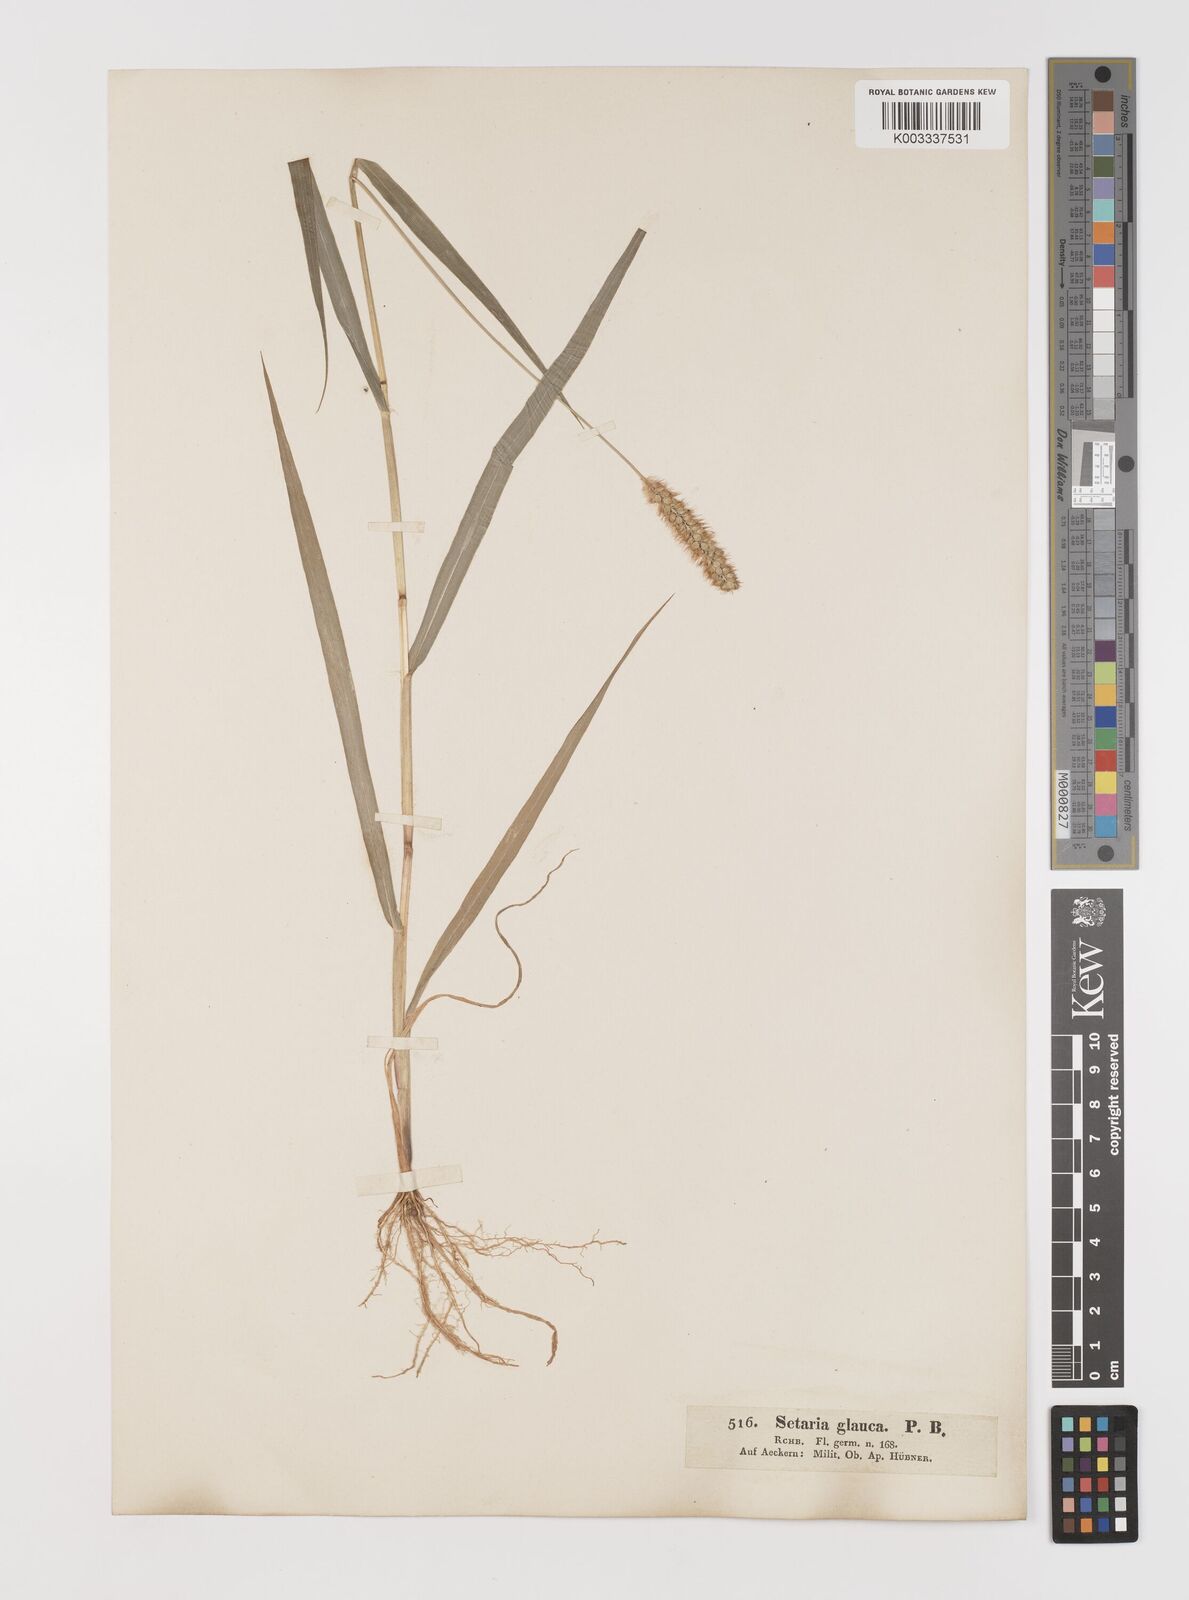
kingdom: Plantae
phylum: Tracheophyta
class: Liliopsida
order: Poales
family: Poaceae
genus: Setaria
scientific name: Setaria pumila
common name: Yellow bristle-grass
